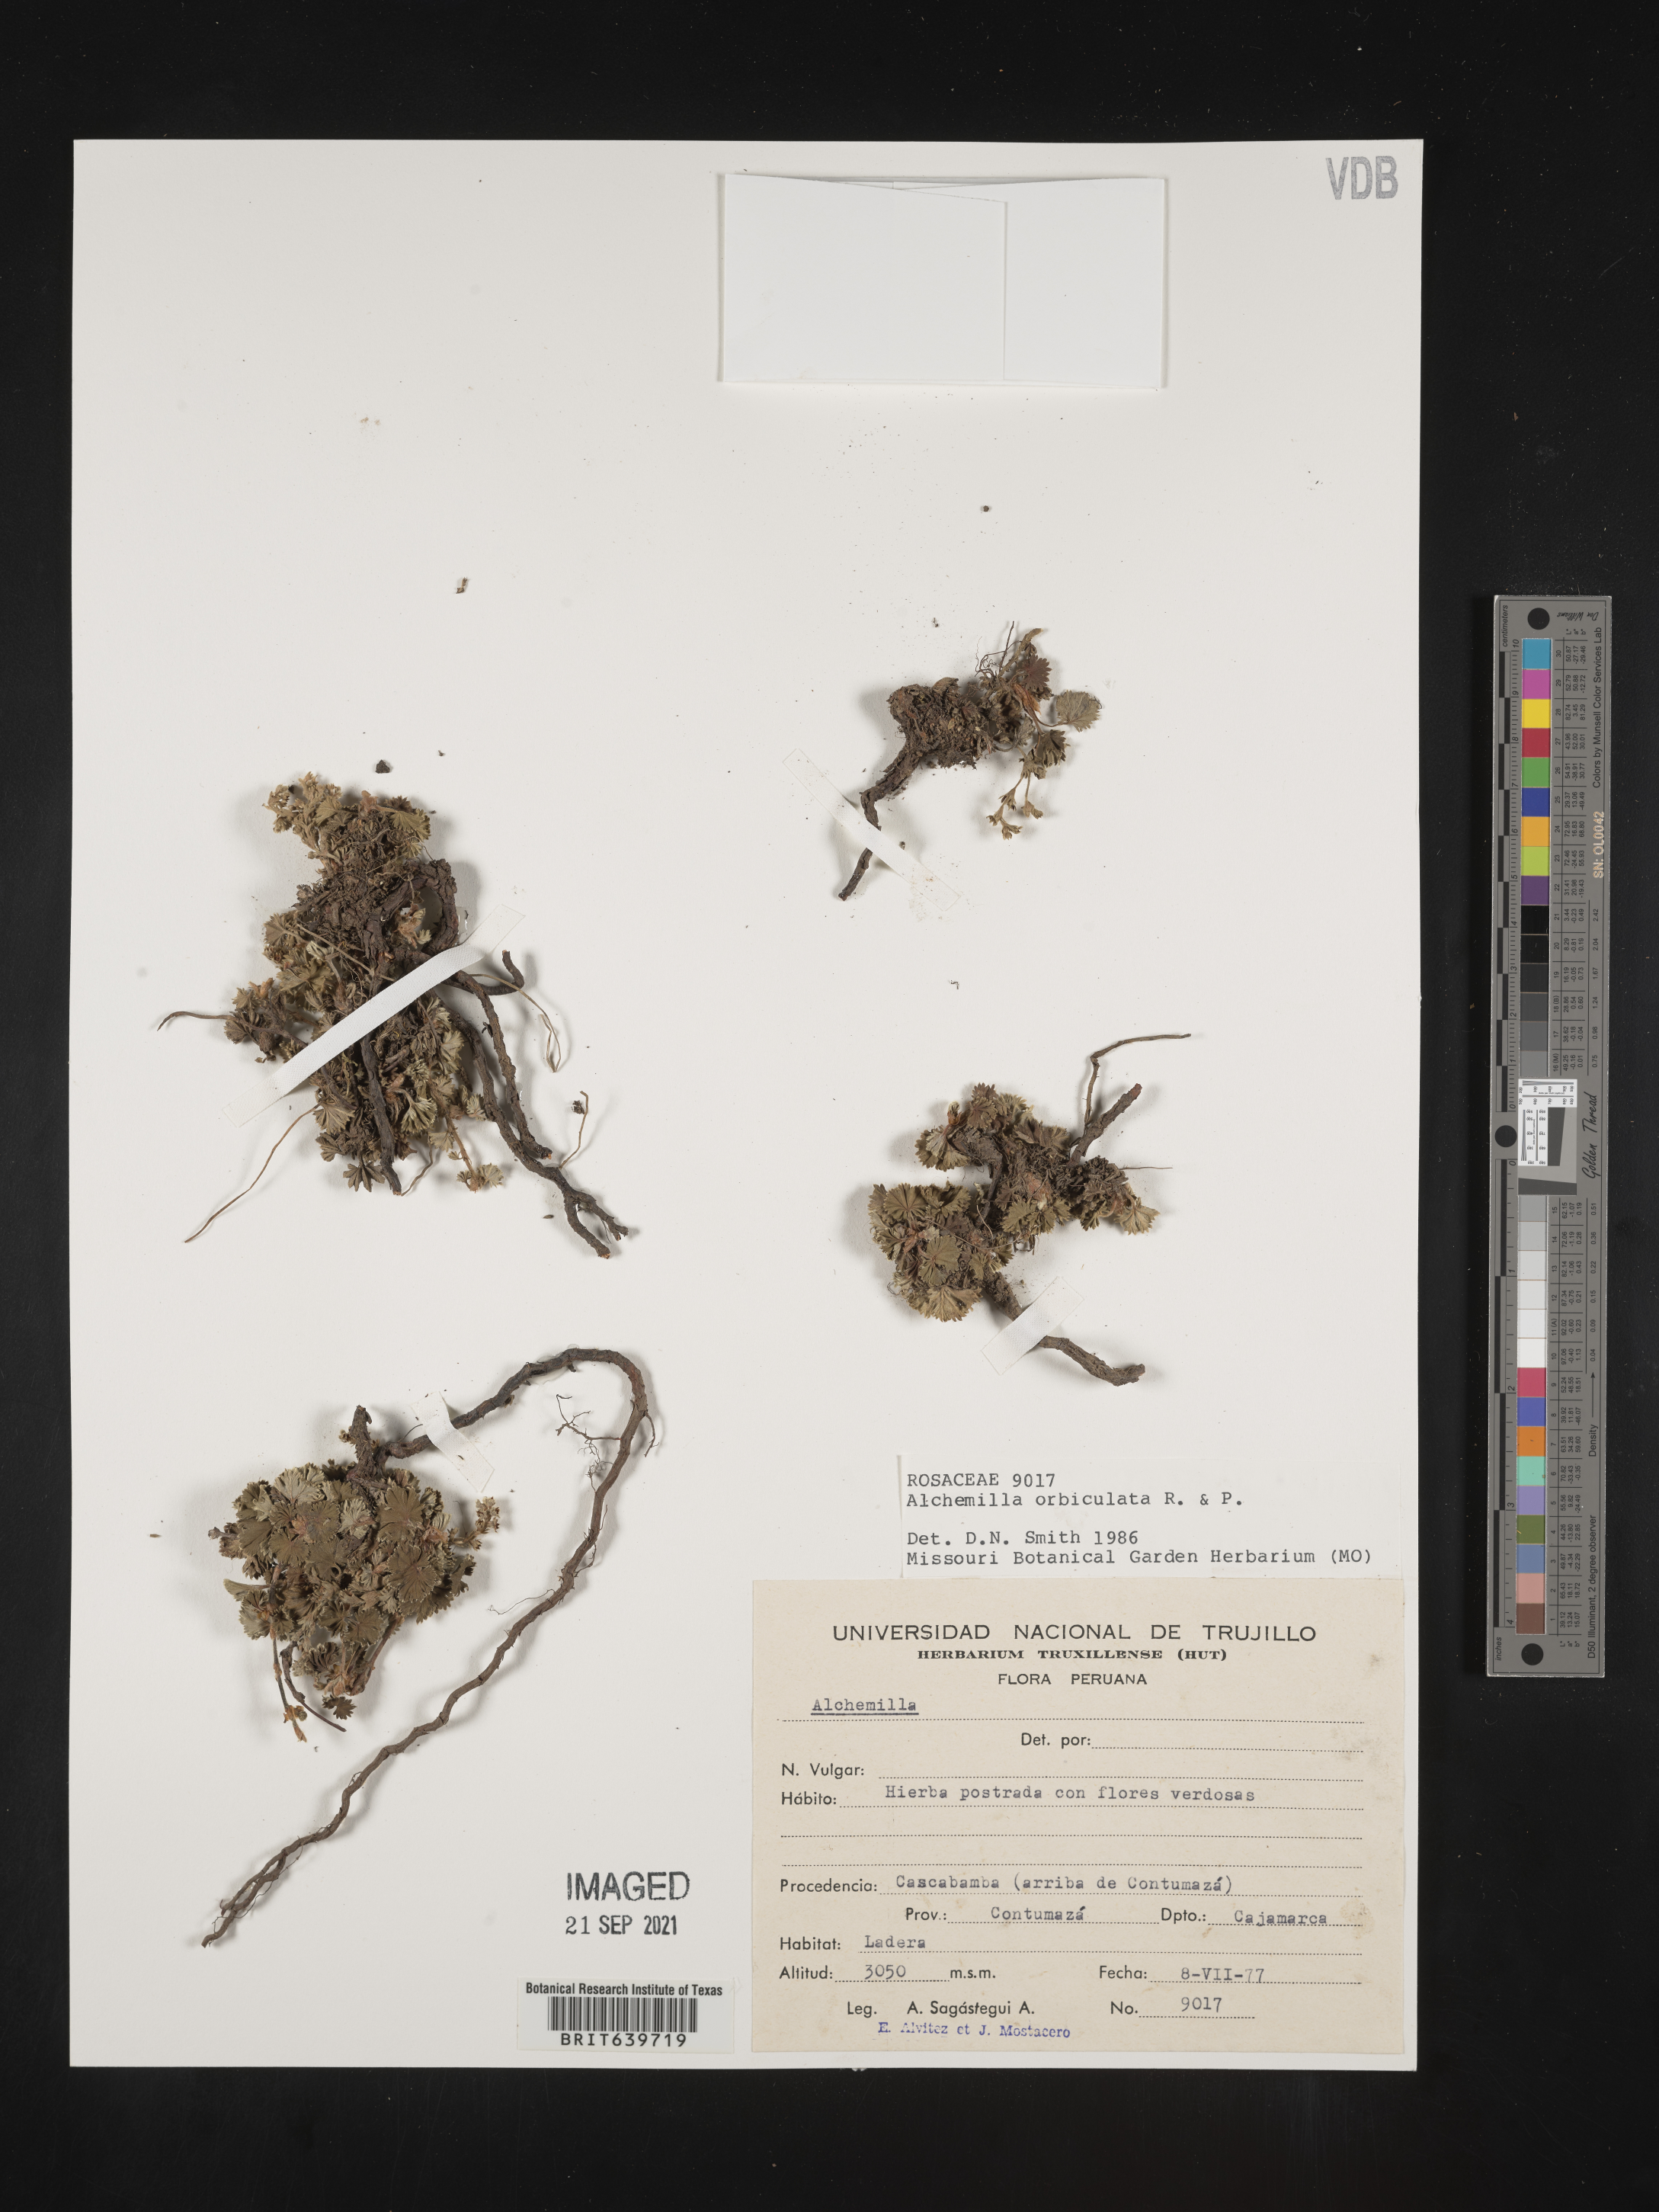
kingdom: Plantae
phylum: Tracheophyta
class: Magnoliopsida
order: Rosales
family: Rosaceae
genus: Alchemilla
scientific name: Alchemilla
